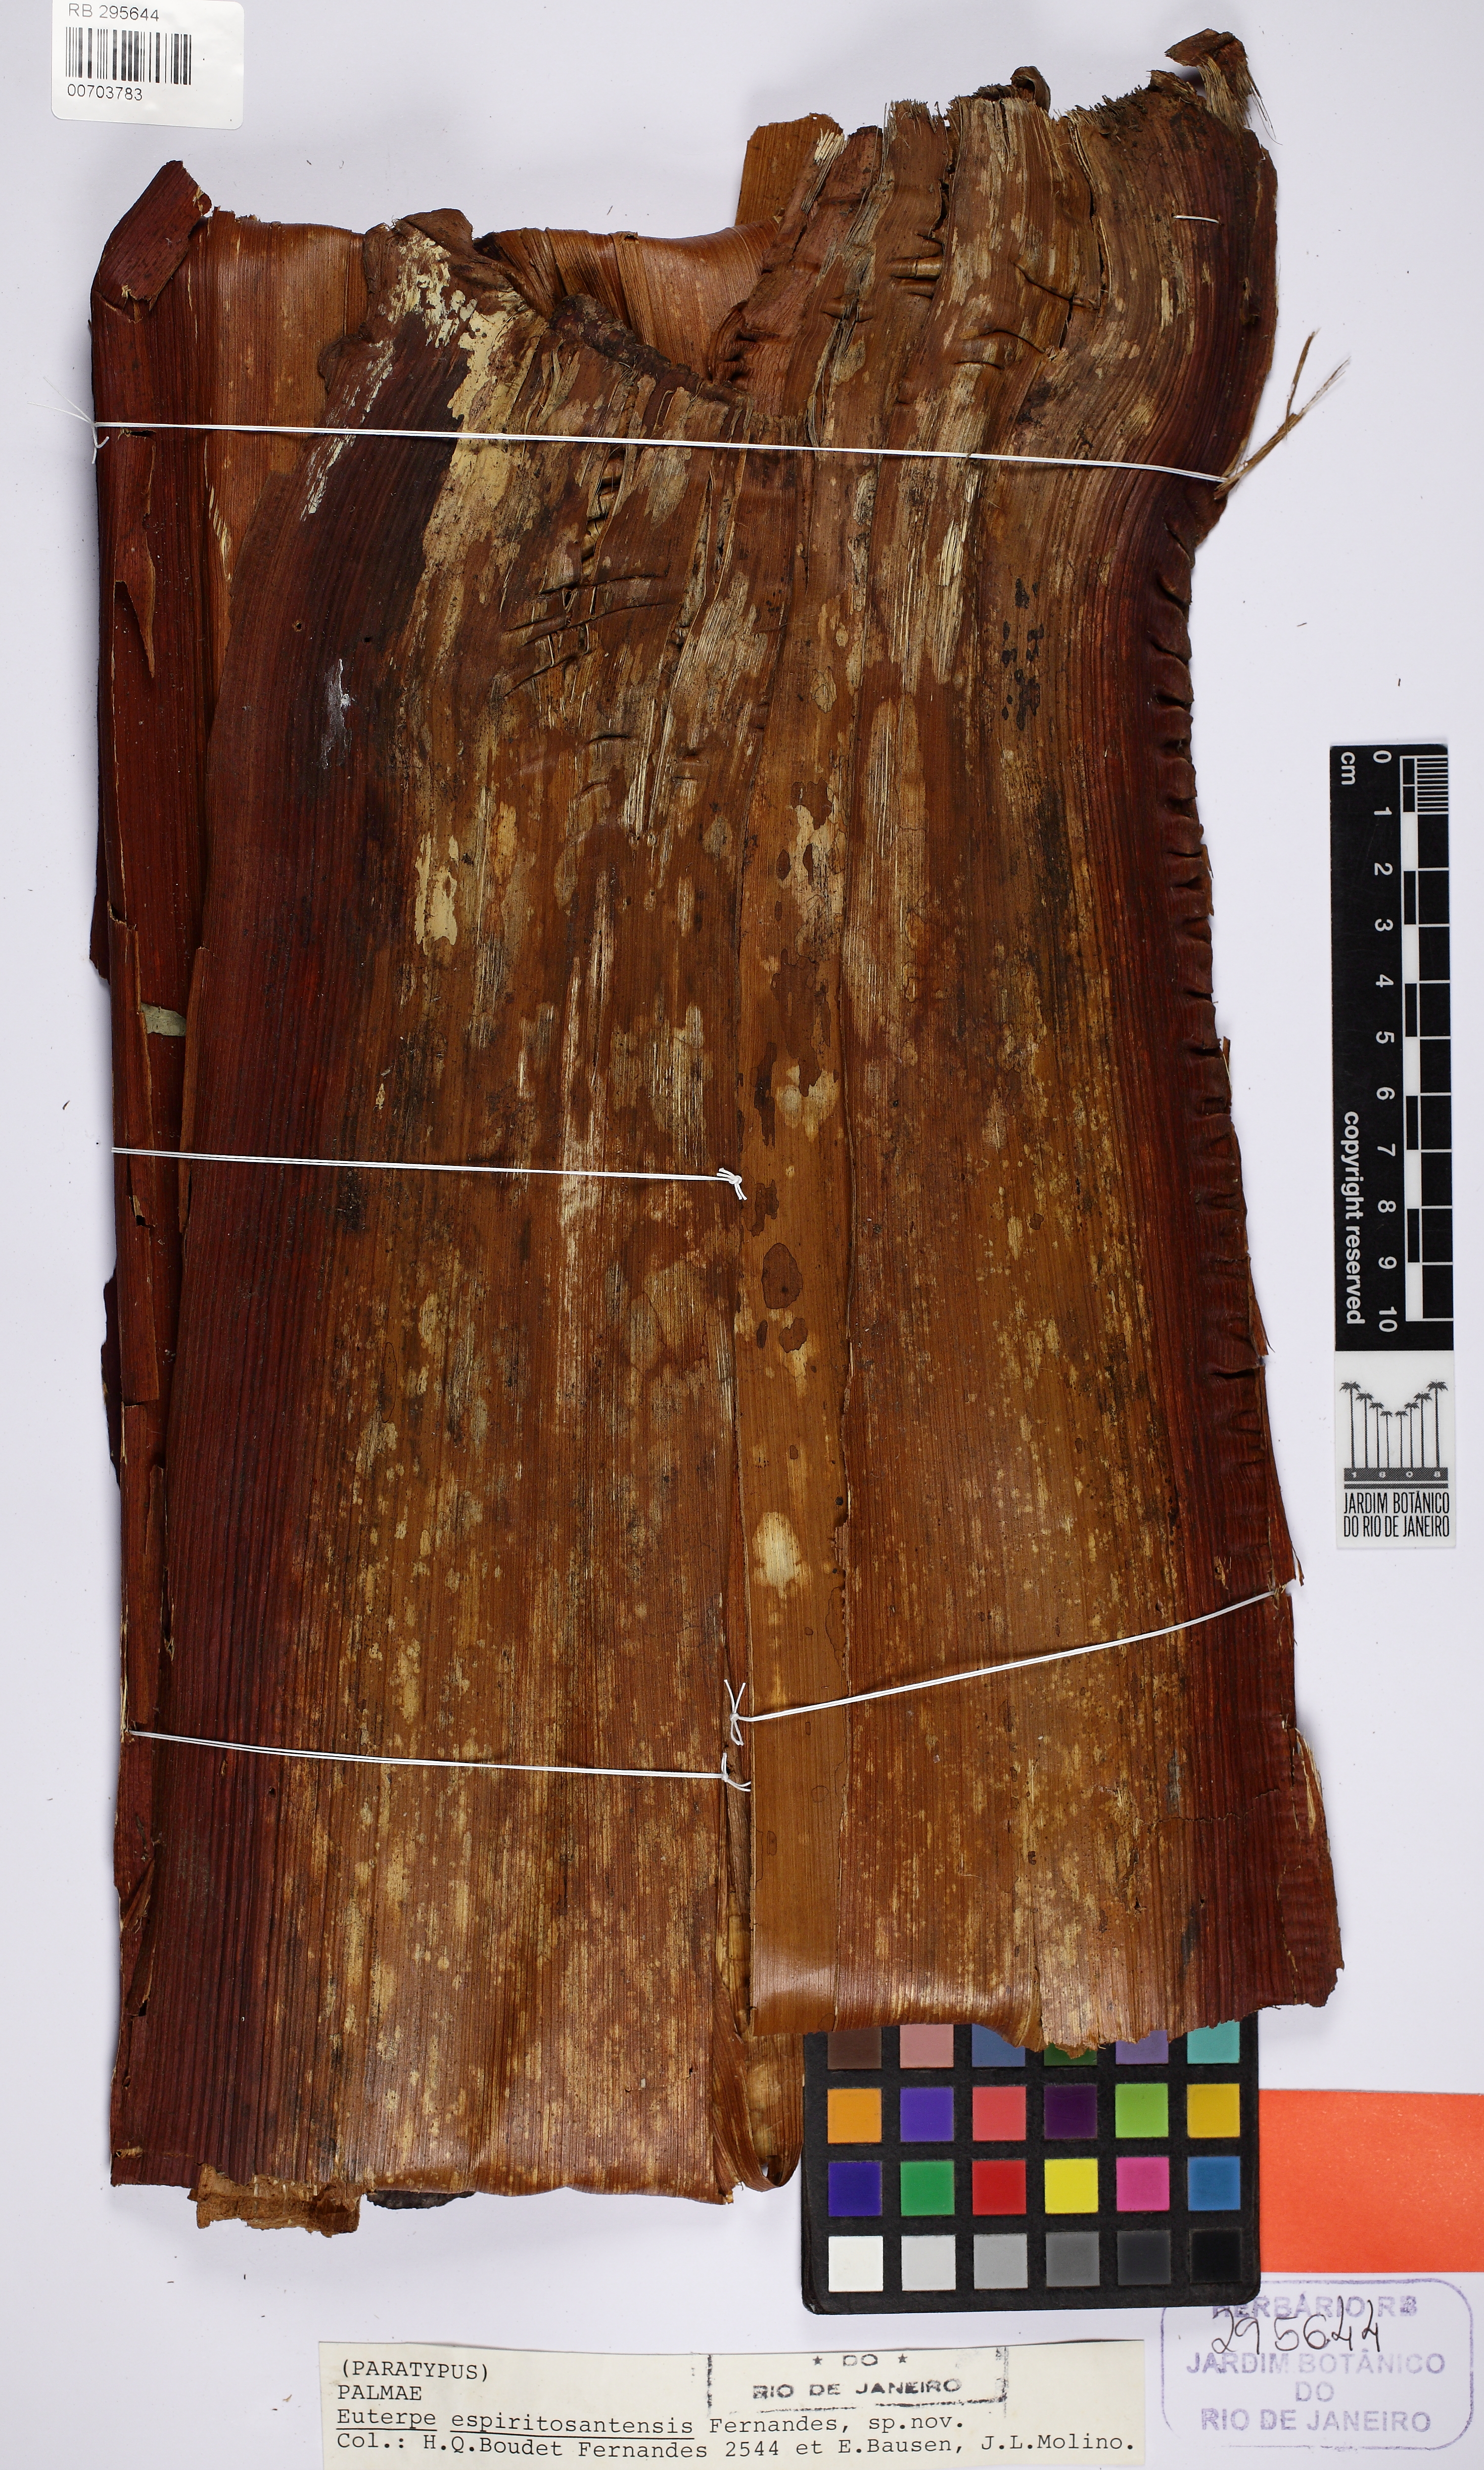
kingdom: Plantae
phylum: Tracheophyta
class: Liliopsida
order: Arecales
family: Arecaceae
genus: Euterpe
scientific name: Euterpe edulis
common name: Assai palm
